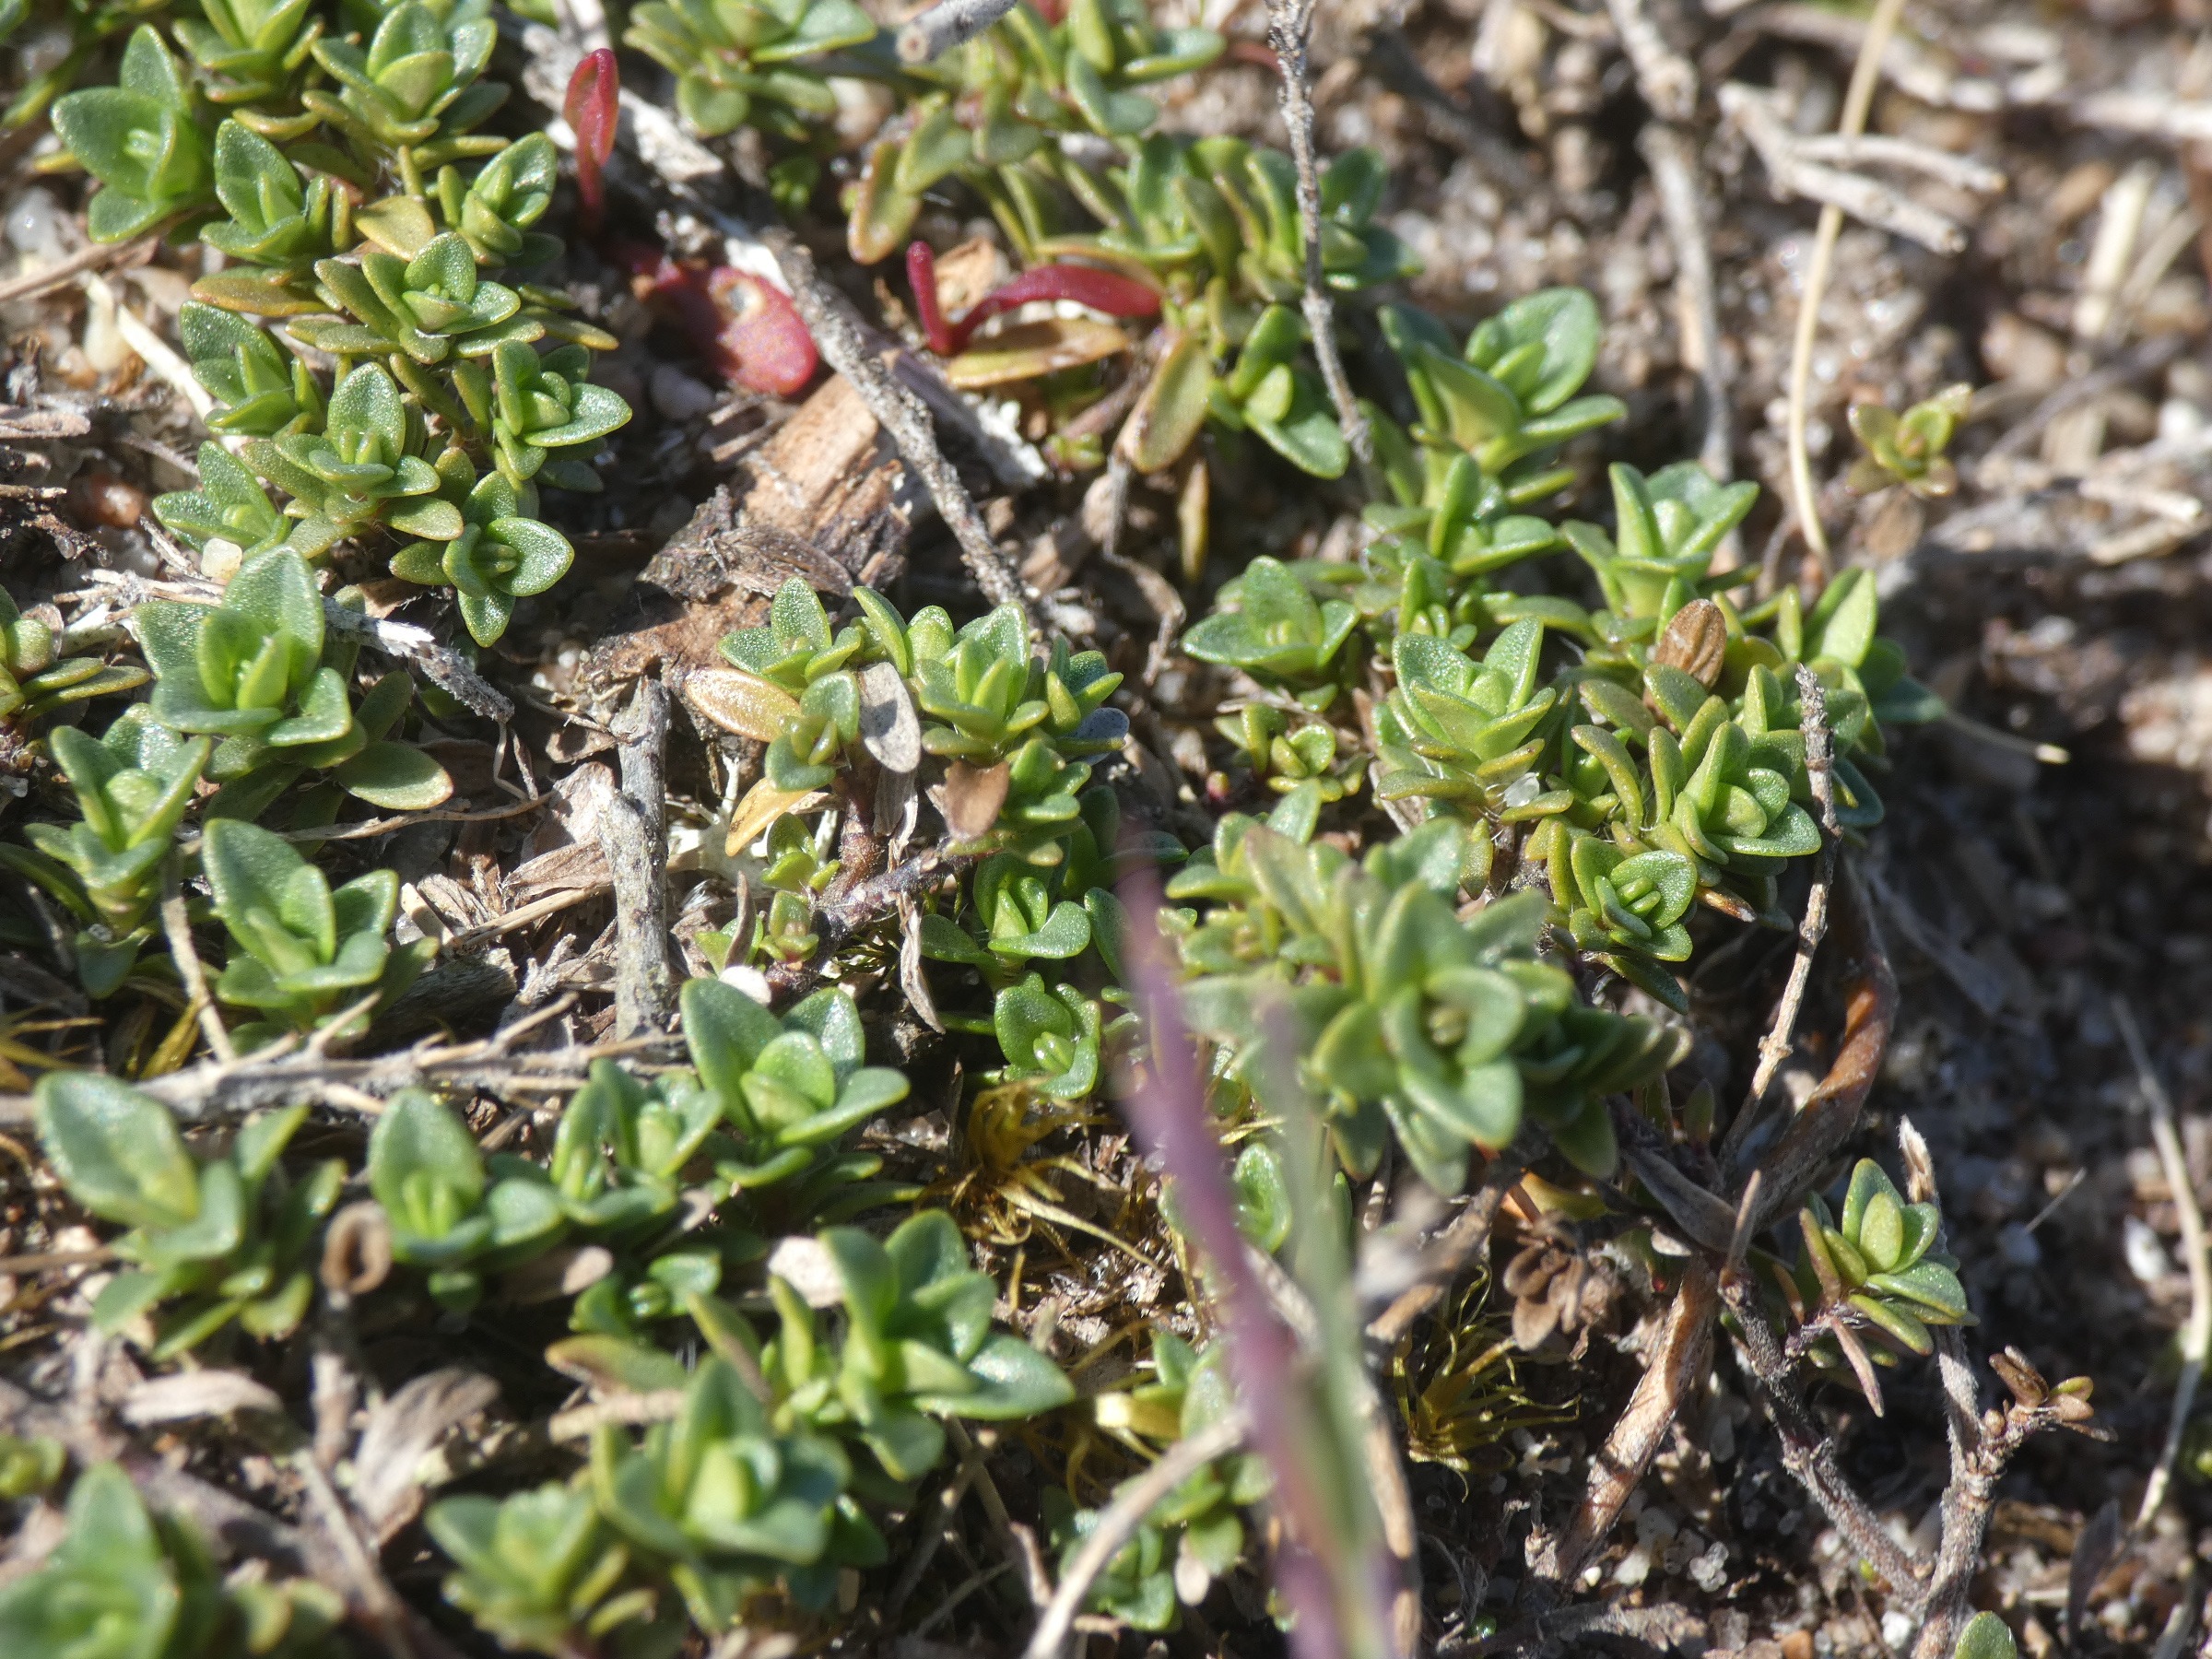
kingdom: Plantae
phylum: Tracheophyta
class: Magnoliopsida
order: Lamiales
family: Lamiaceae
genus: Thymus
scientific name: Thymus serpyllum
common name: Smalbladet timian
